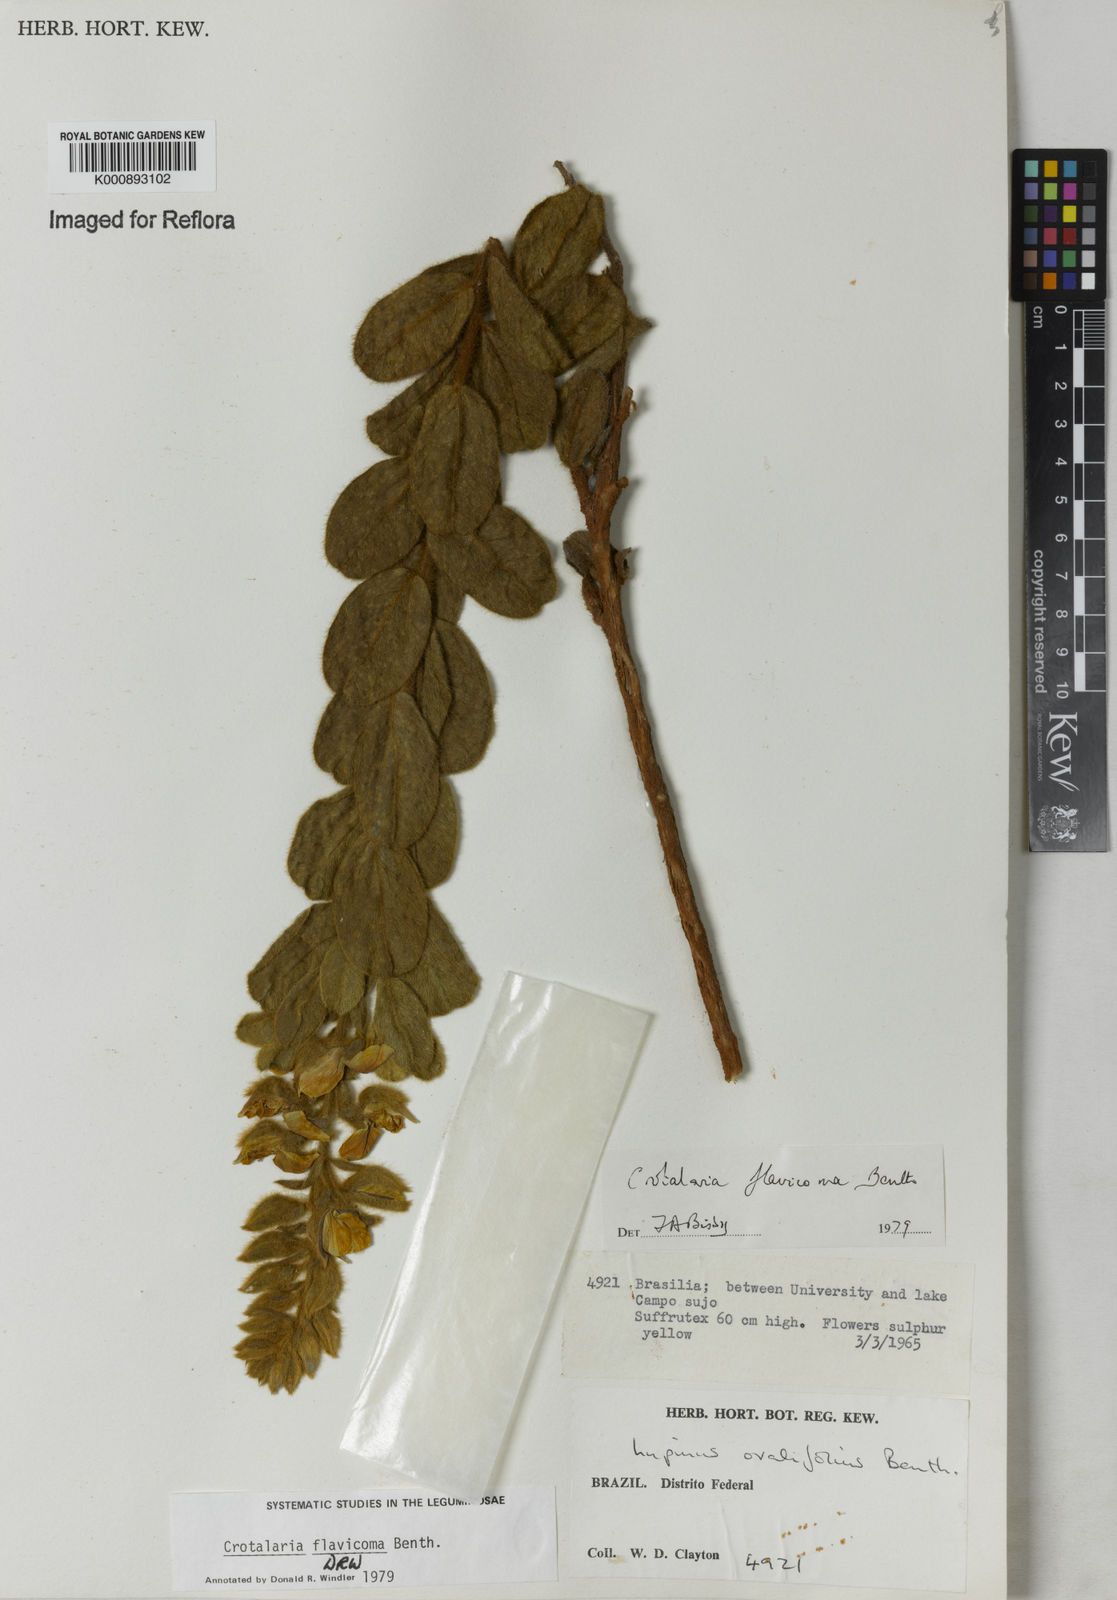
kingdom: Plantae
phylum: Tracheophyta
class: Magnoliopsida
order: Fabales
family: Fabaceae
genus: Crotalaria
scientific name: Crotalaria flavicoma
